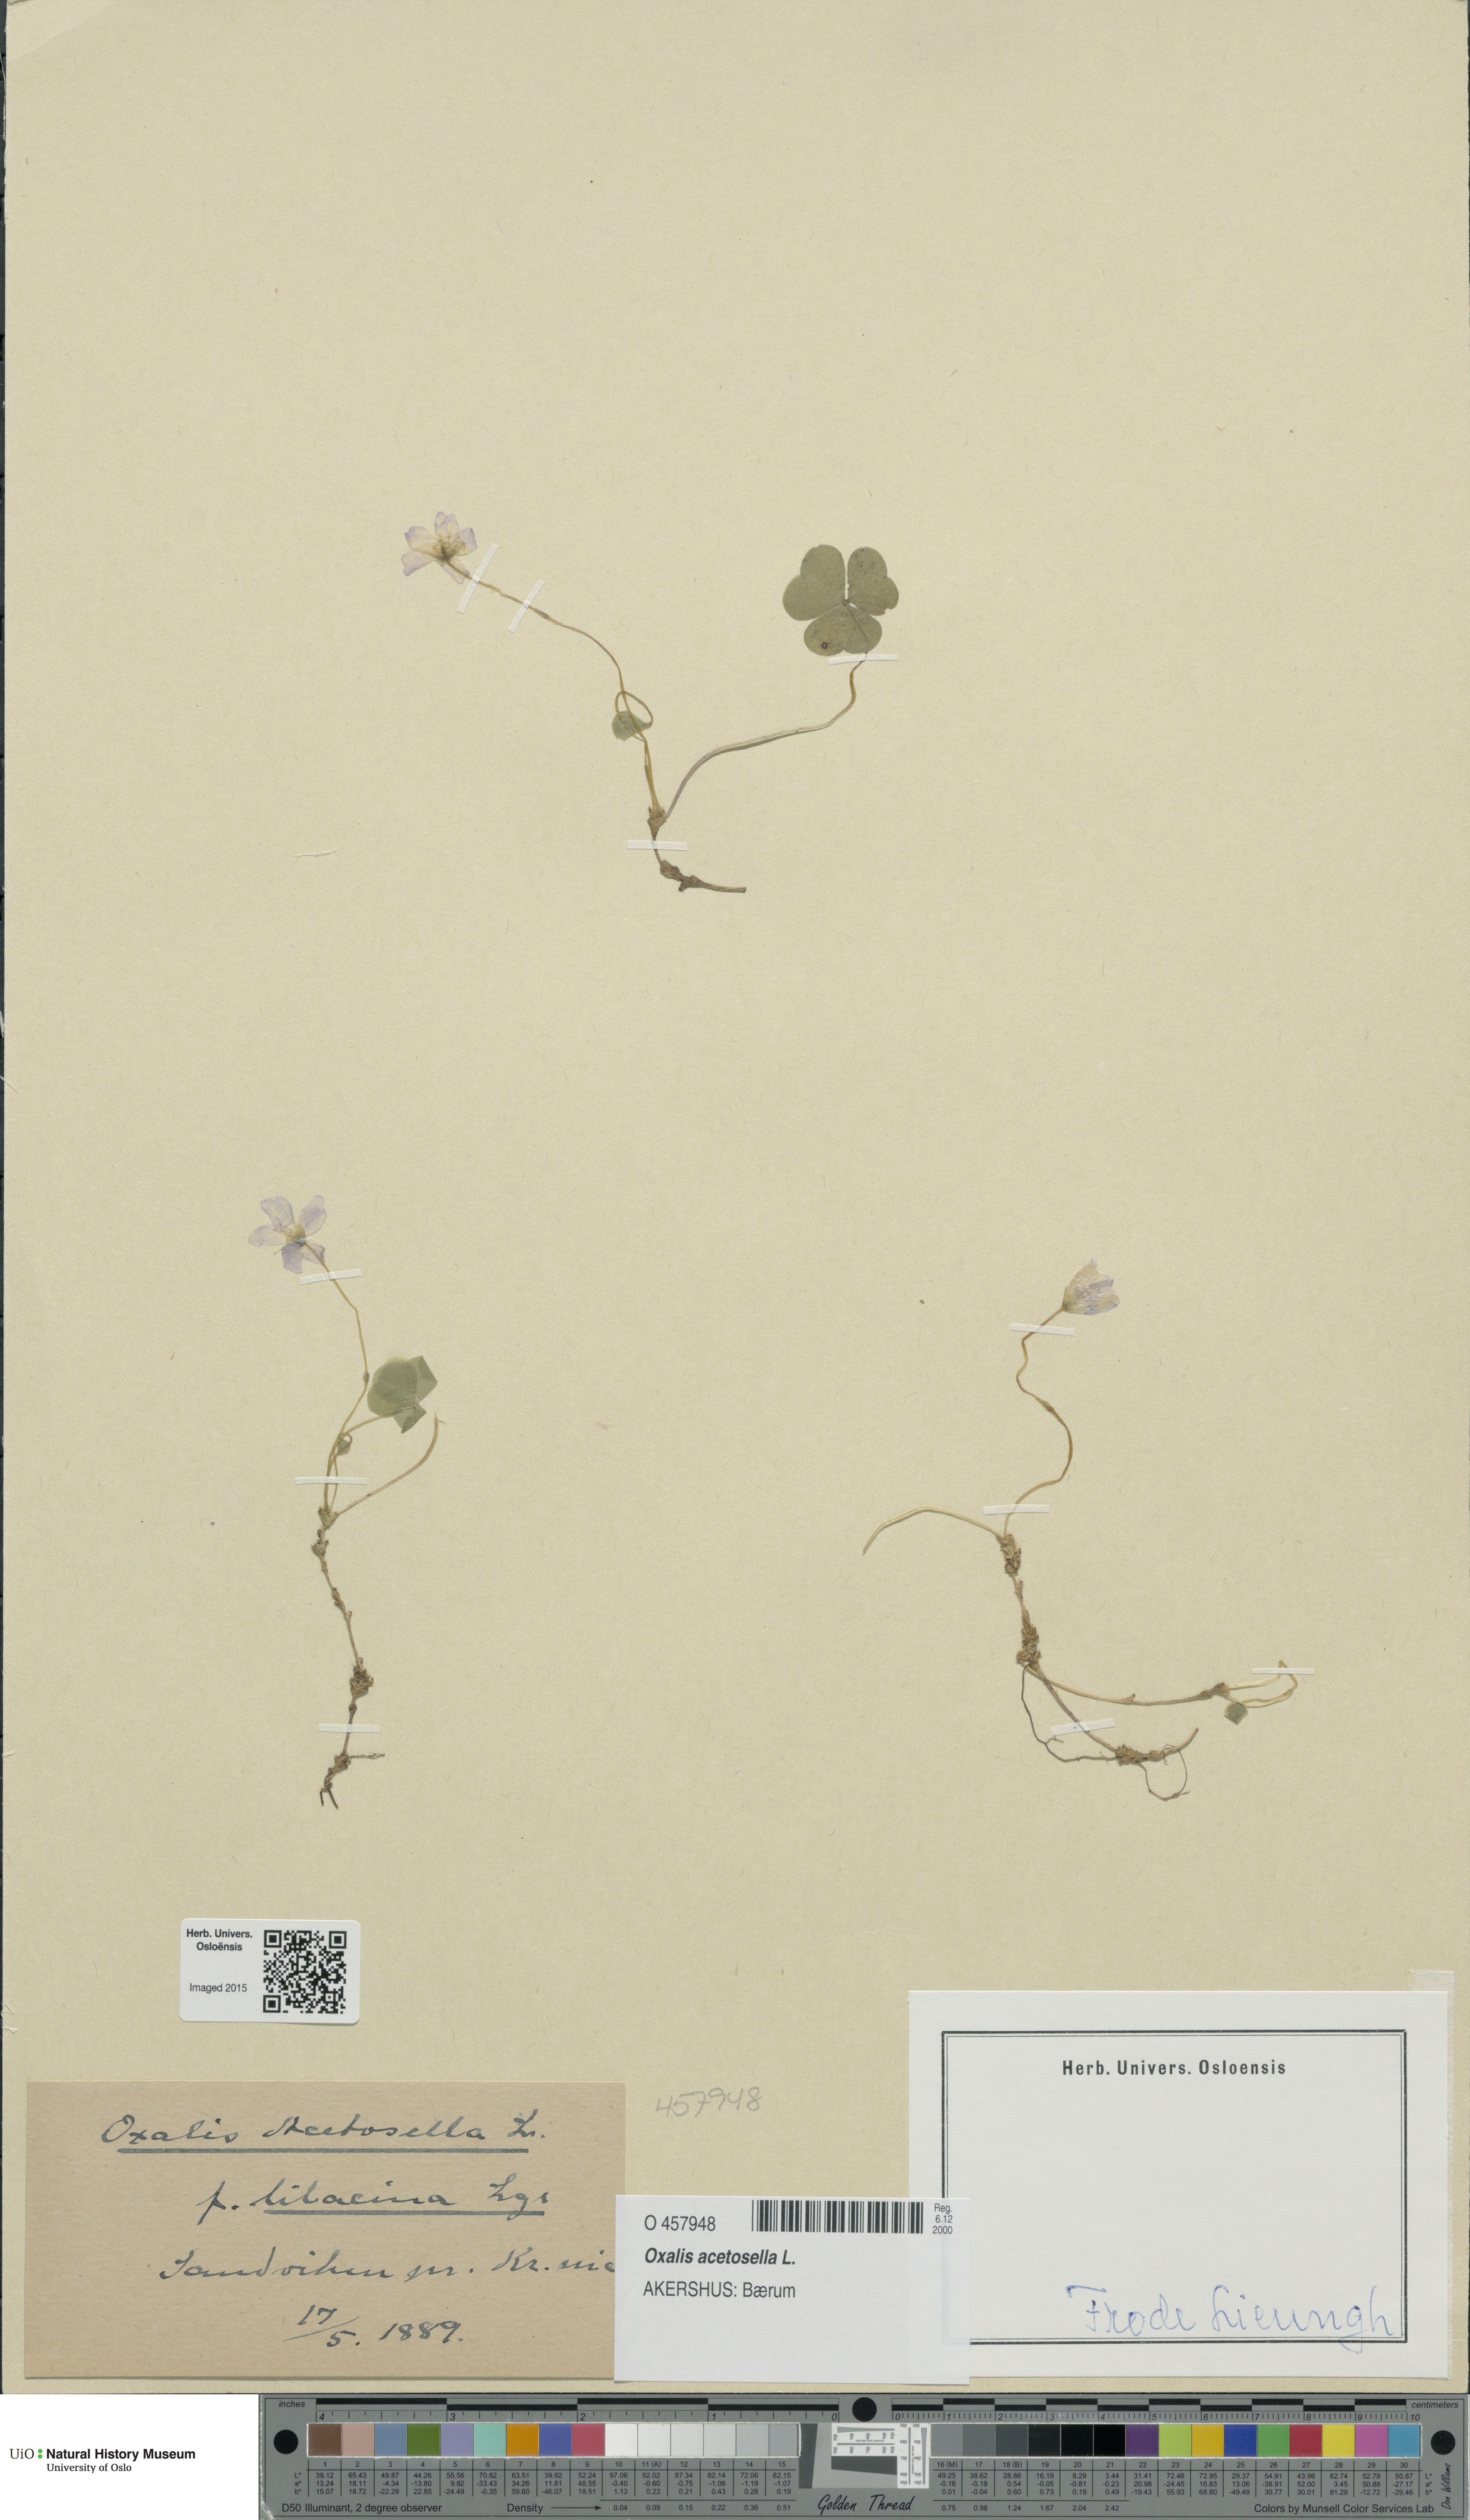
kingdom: Plantae
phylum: Tracheophyta
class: Magnoliopsida
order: Oxalidales
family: Oxalidaceae
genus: Oxalis
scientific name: Oxalis acetosella
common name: Wood-sorrel
